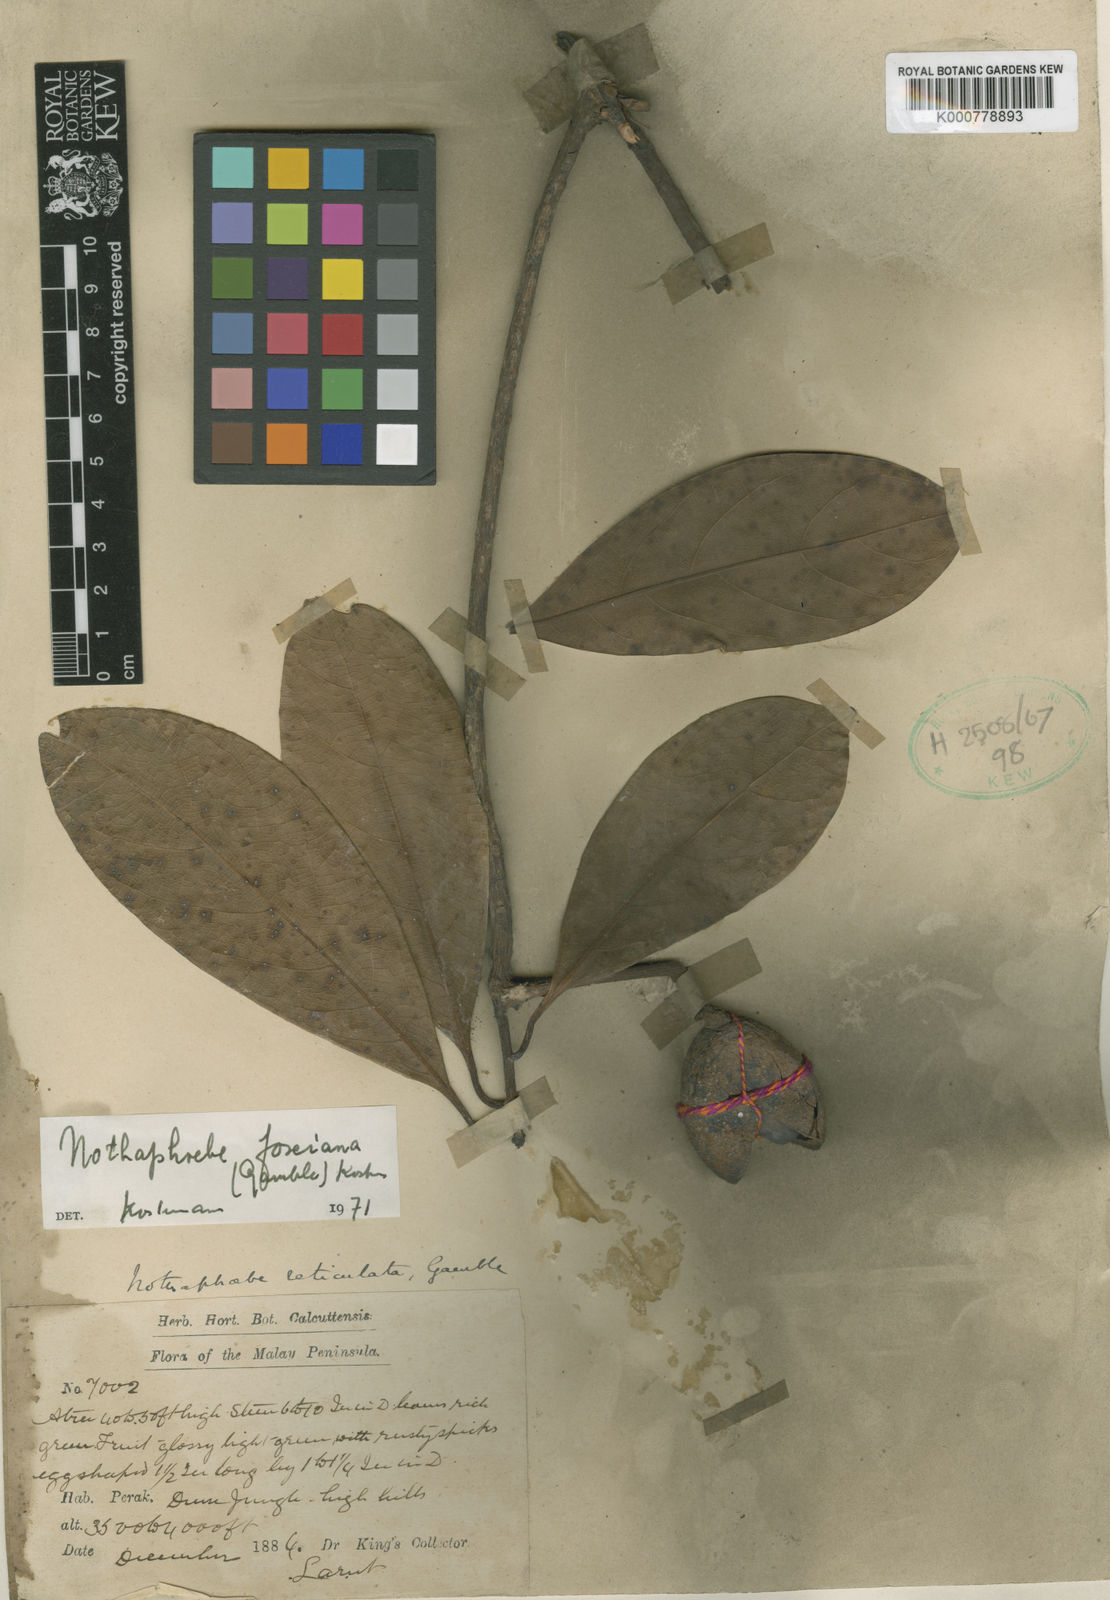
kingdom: Plantae
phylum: Tracheophyta
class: Magnoliopsida
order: Laurales
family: Lauraceae
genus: Nothaphoebe
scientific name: Nothaphoebe
